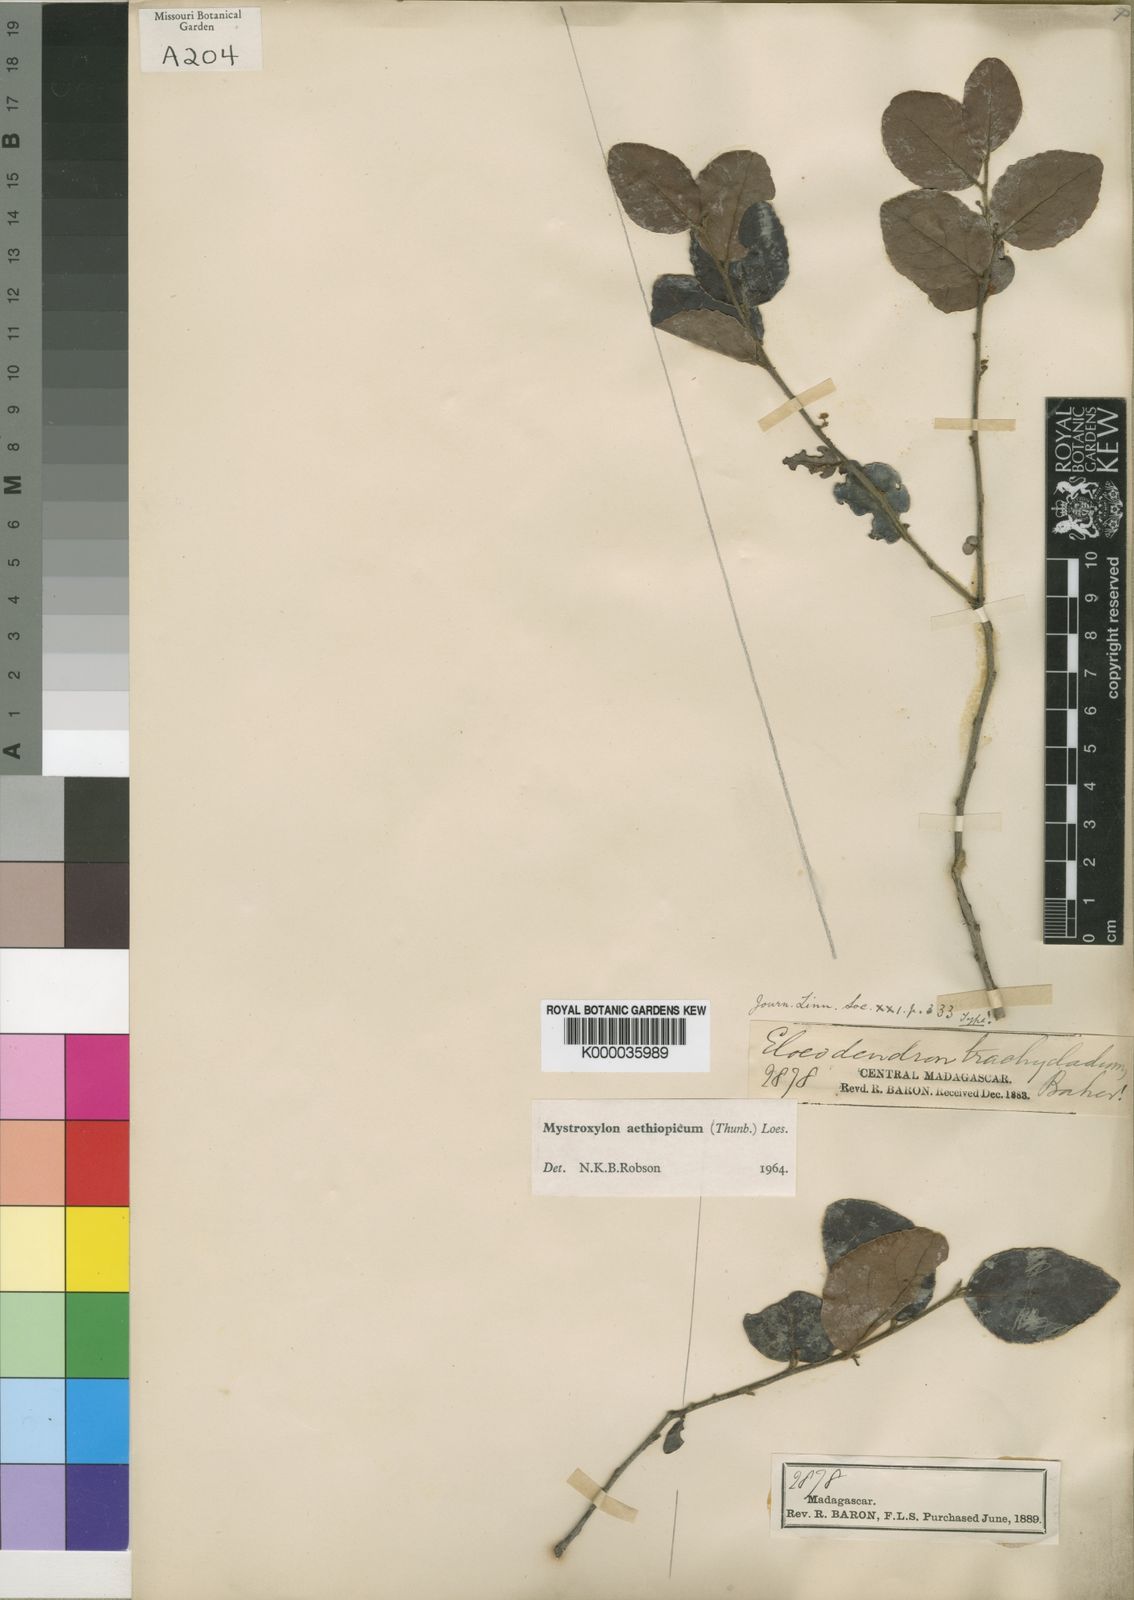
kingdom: Plantae
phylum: Tracheophyta
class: Magnoliopsida
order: Celastrales
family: Celastraceae
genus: Mystroxylon
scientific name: Mystroxylon aethiopicum
